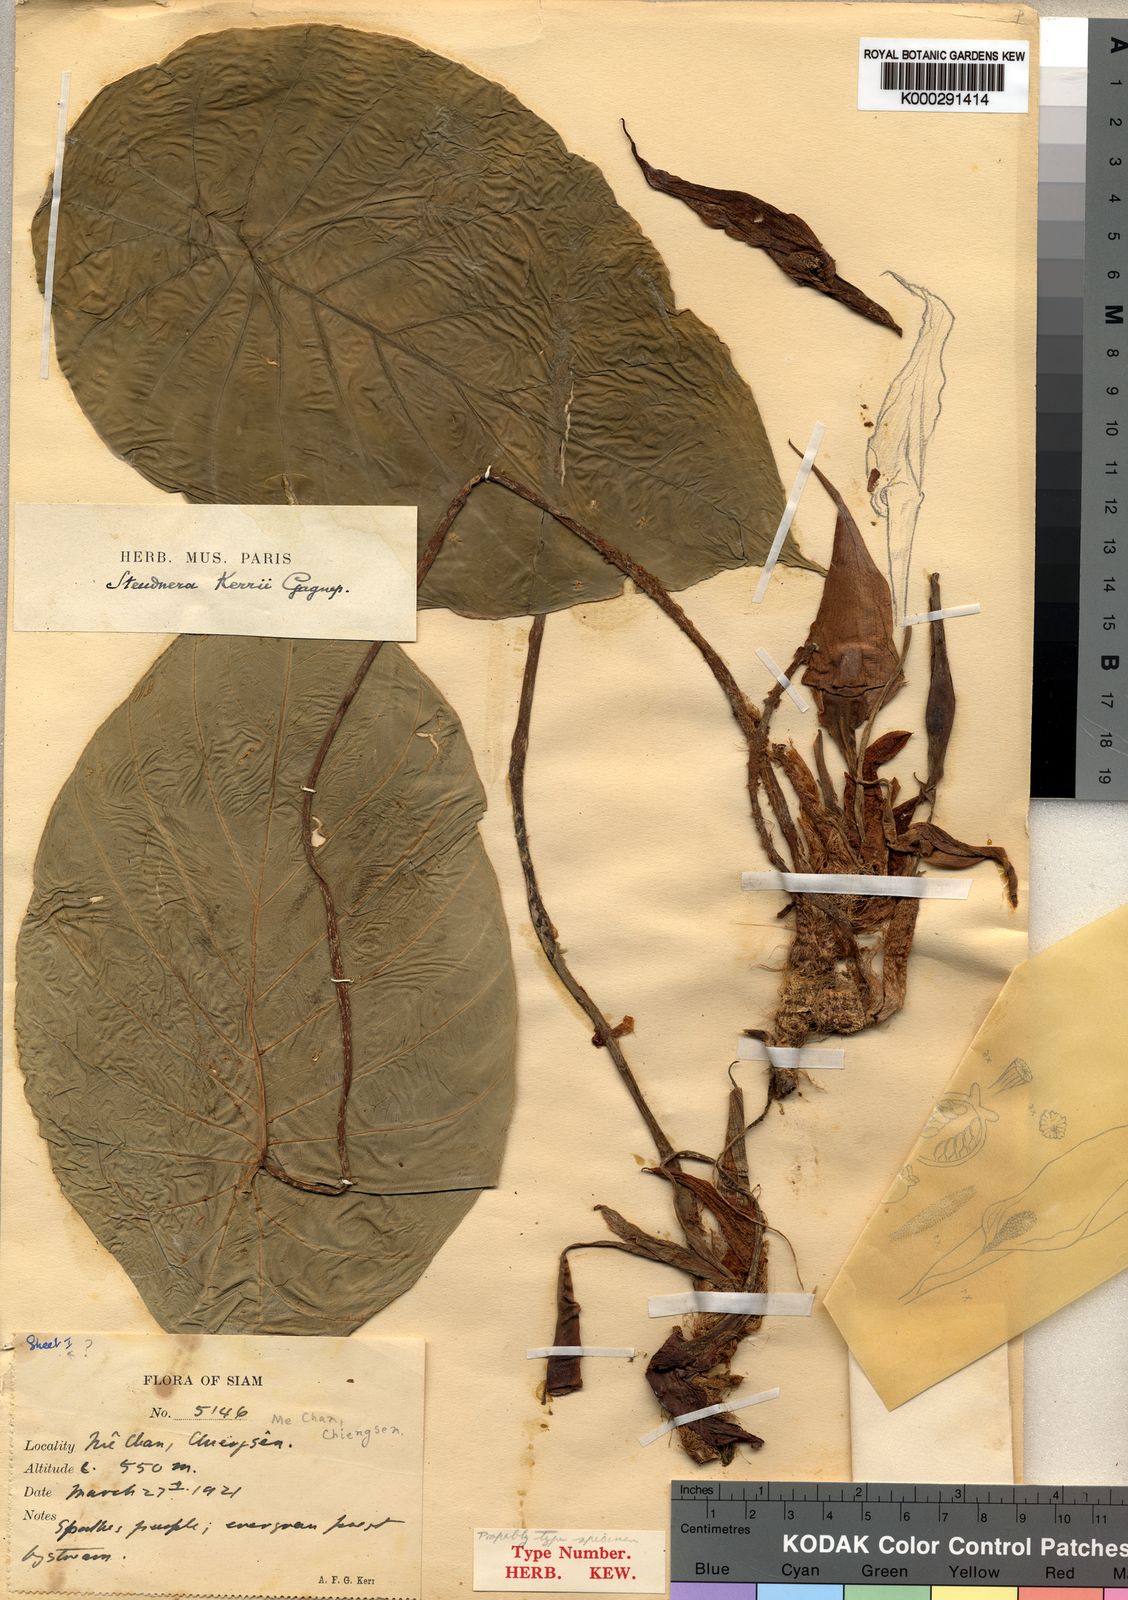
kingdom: Plantae
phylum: Tracheophyta
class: Liliopsida
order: Alismatales
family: Araceae
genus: Steudnera
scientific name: Steudnera kerrii
